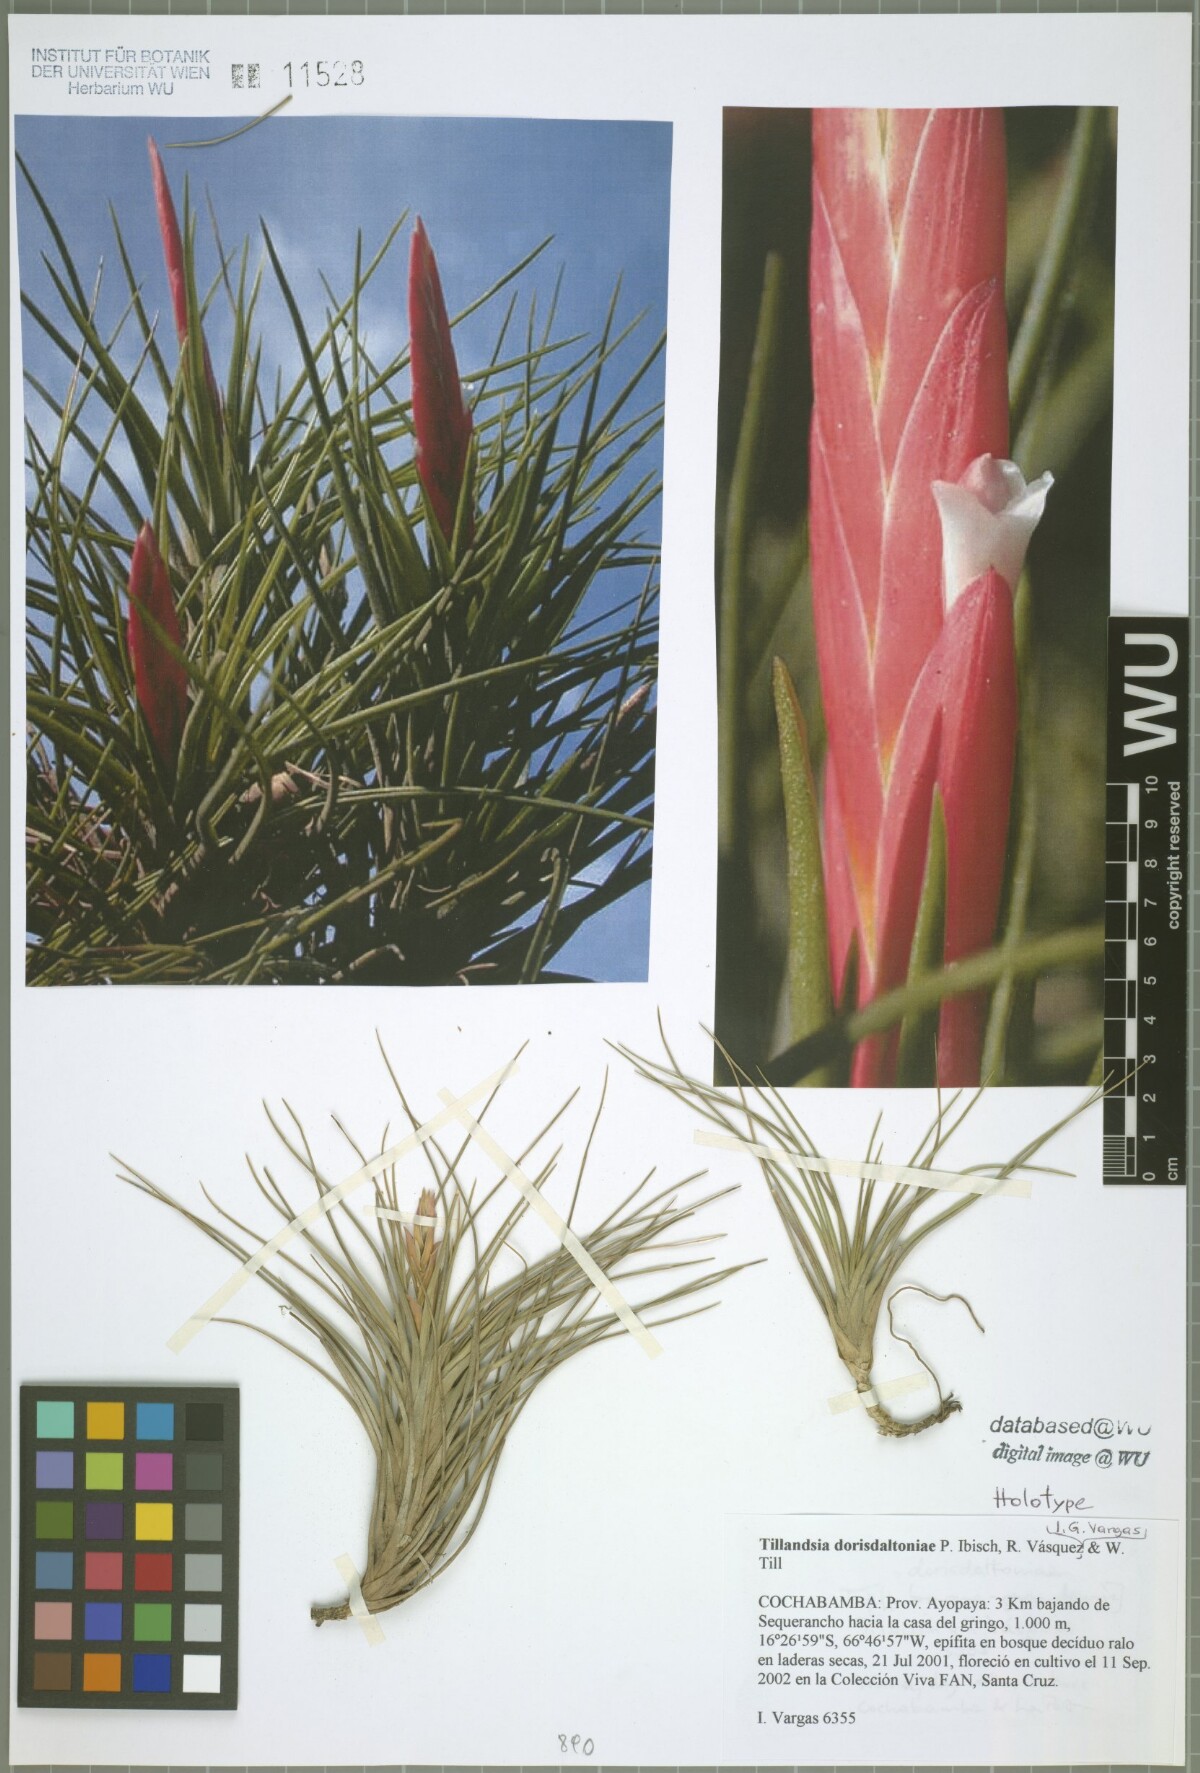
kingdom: Plantae
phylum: Tracheophyta
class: Liliopsida
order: Poales
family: Bromeliaceae
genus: Tillandsia
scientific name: Tillandsia dorisdaltoniae
